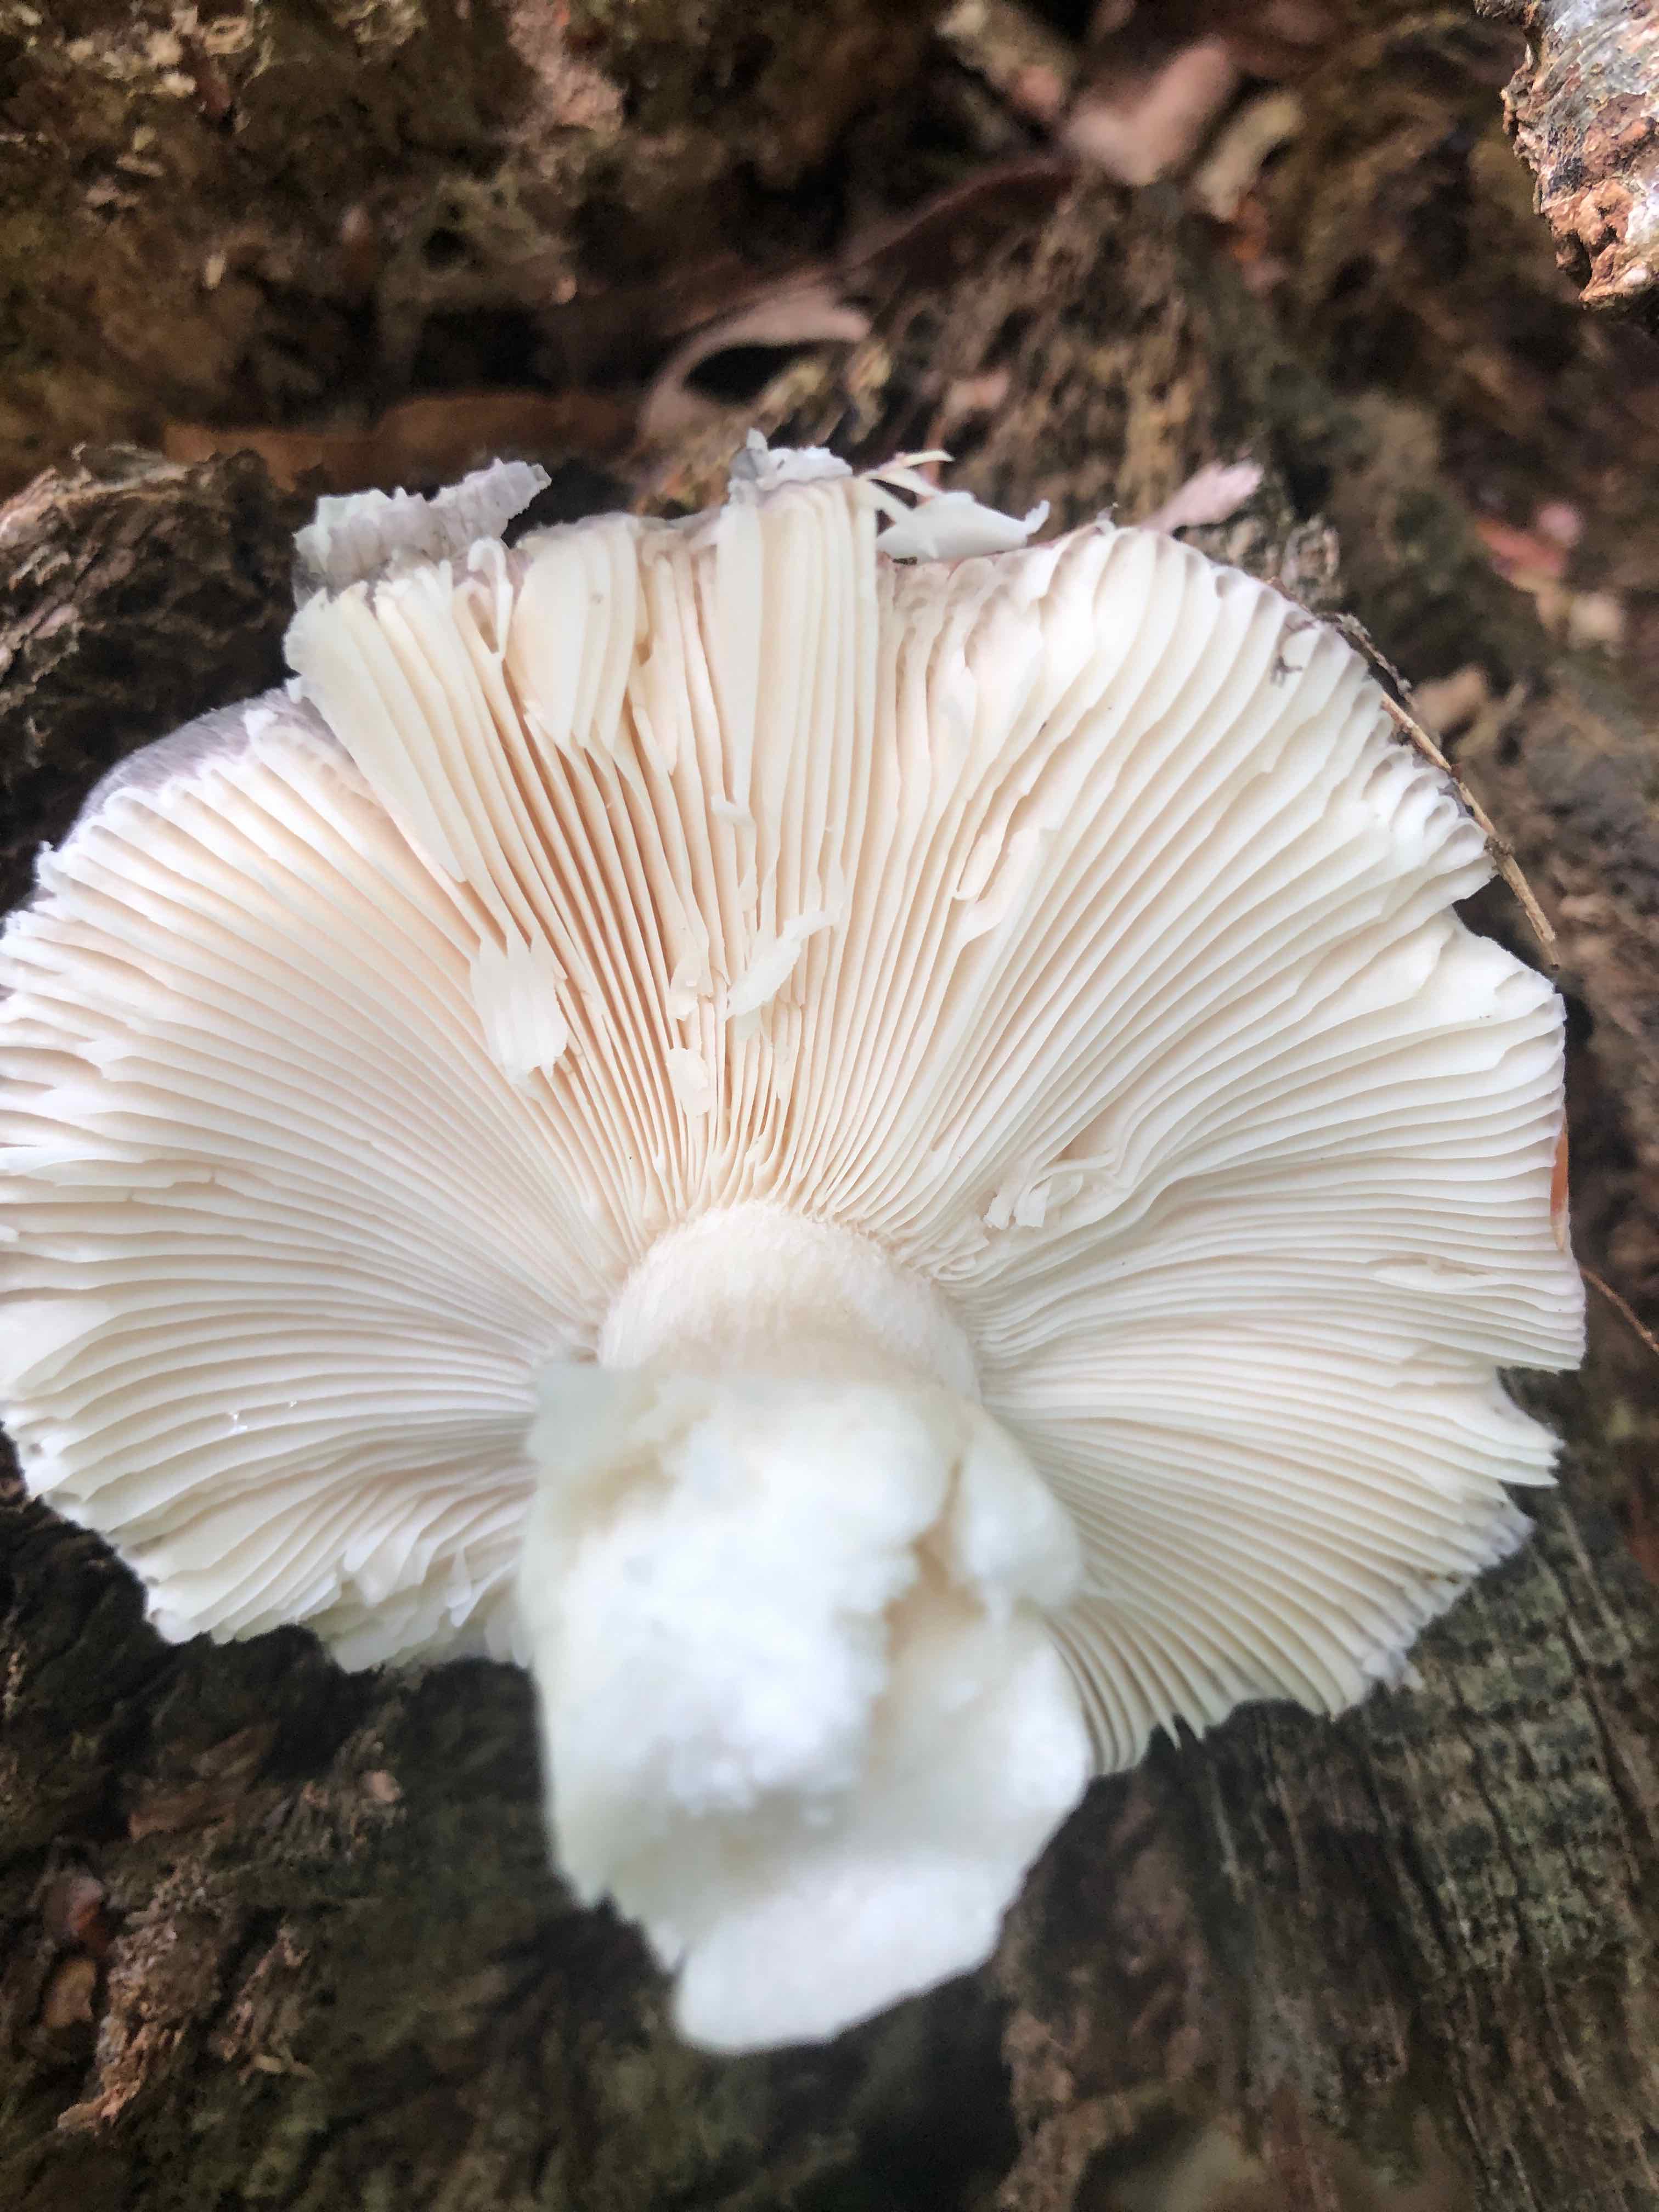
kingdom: Fungi
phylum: Basidiomycota
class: Agaricomycetes
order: Russulales
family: Russulaceae
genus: Russula
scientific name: Russula
